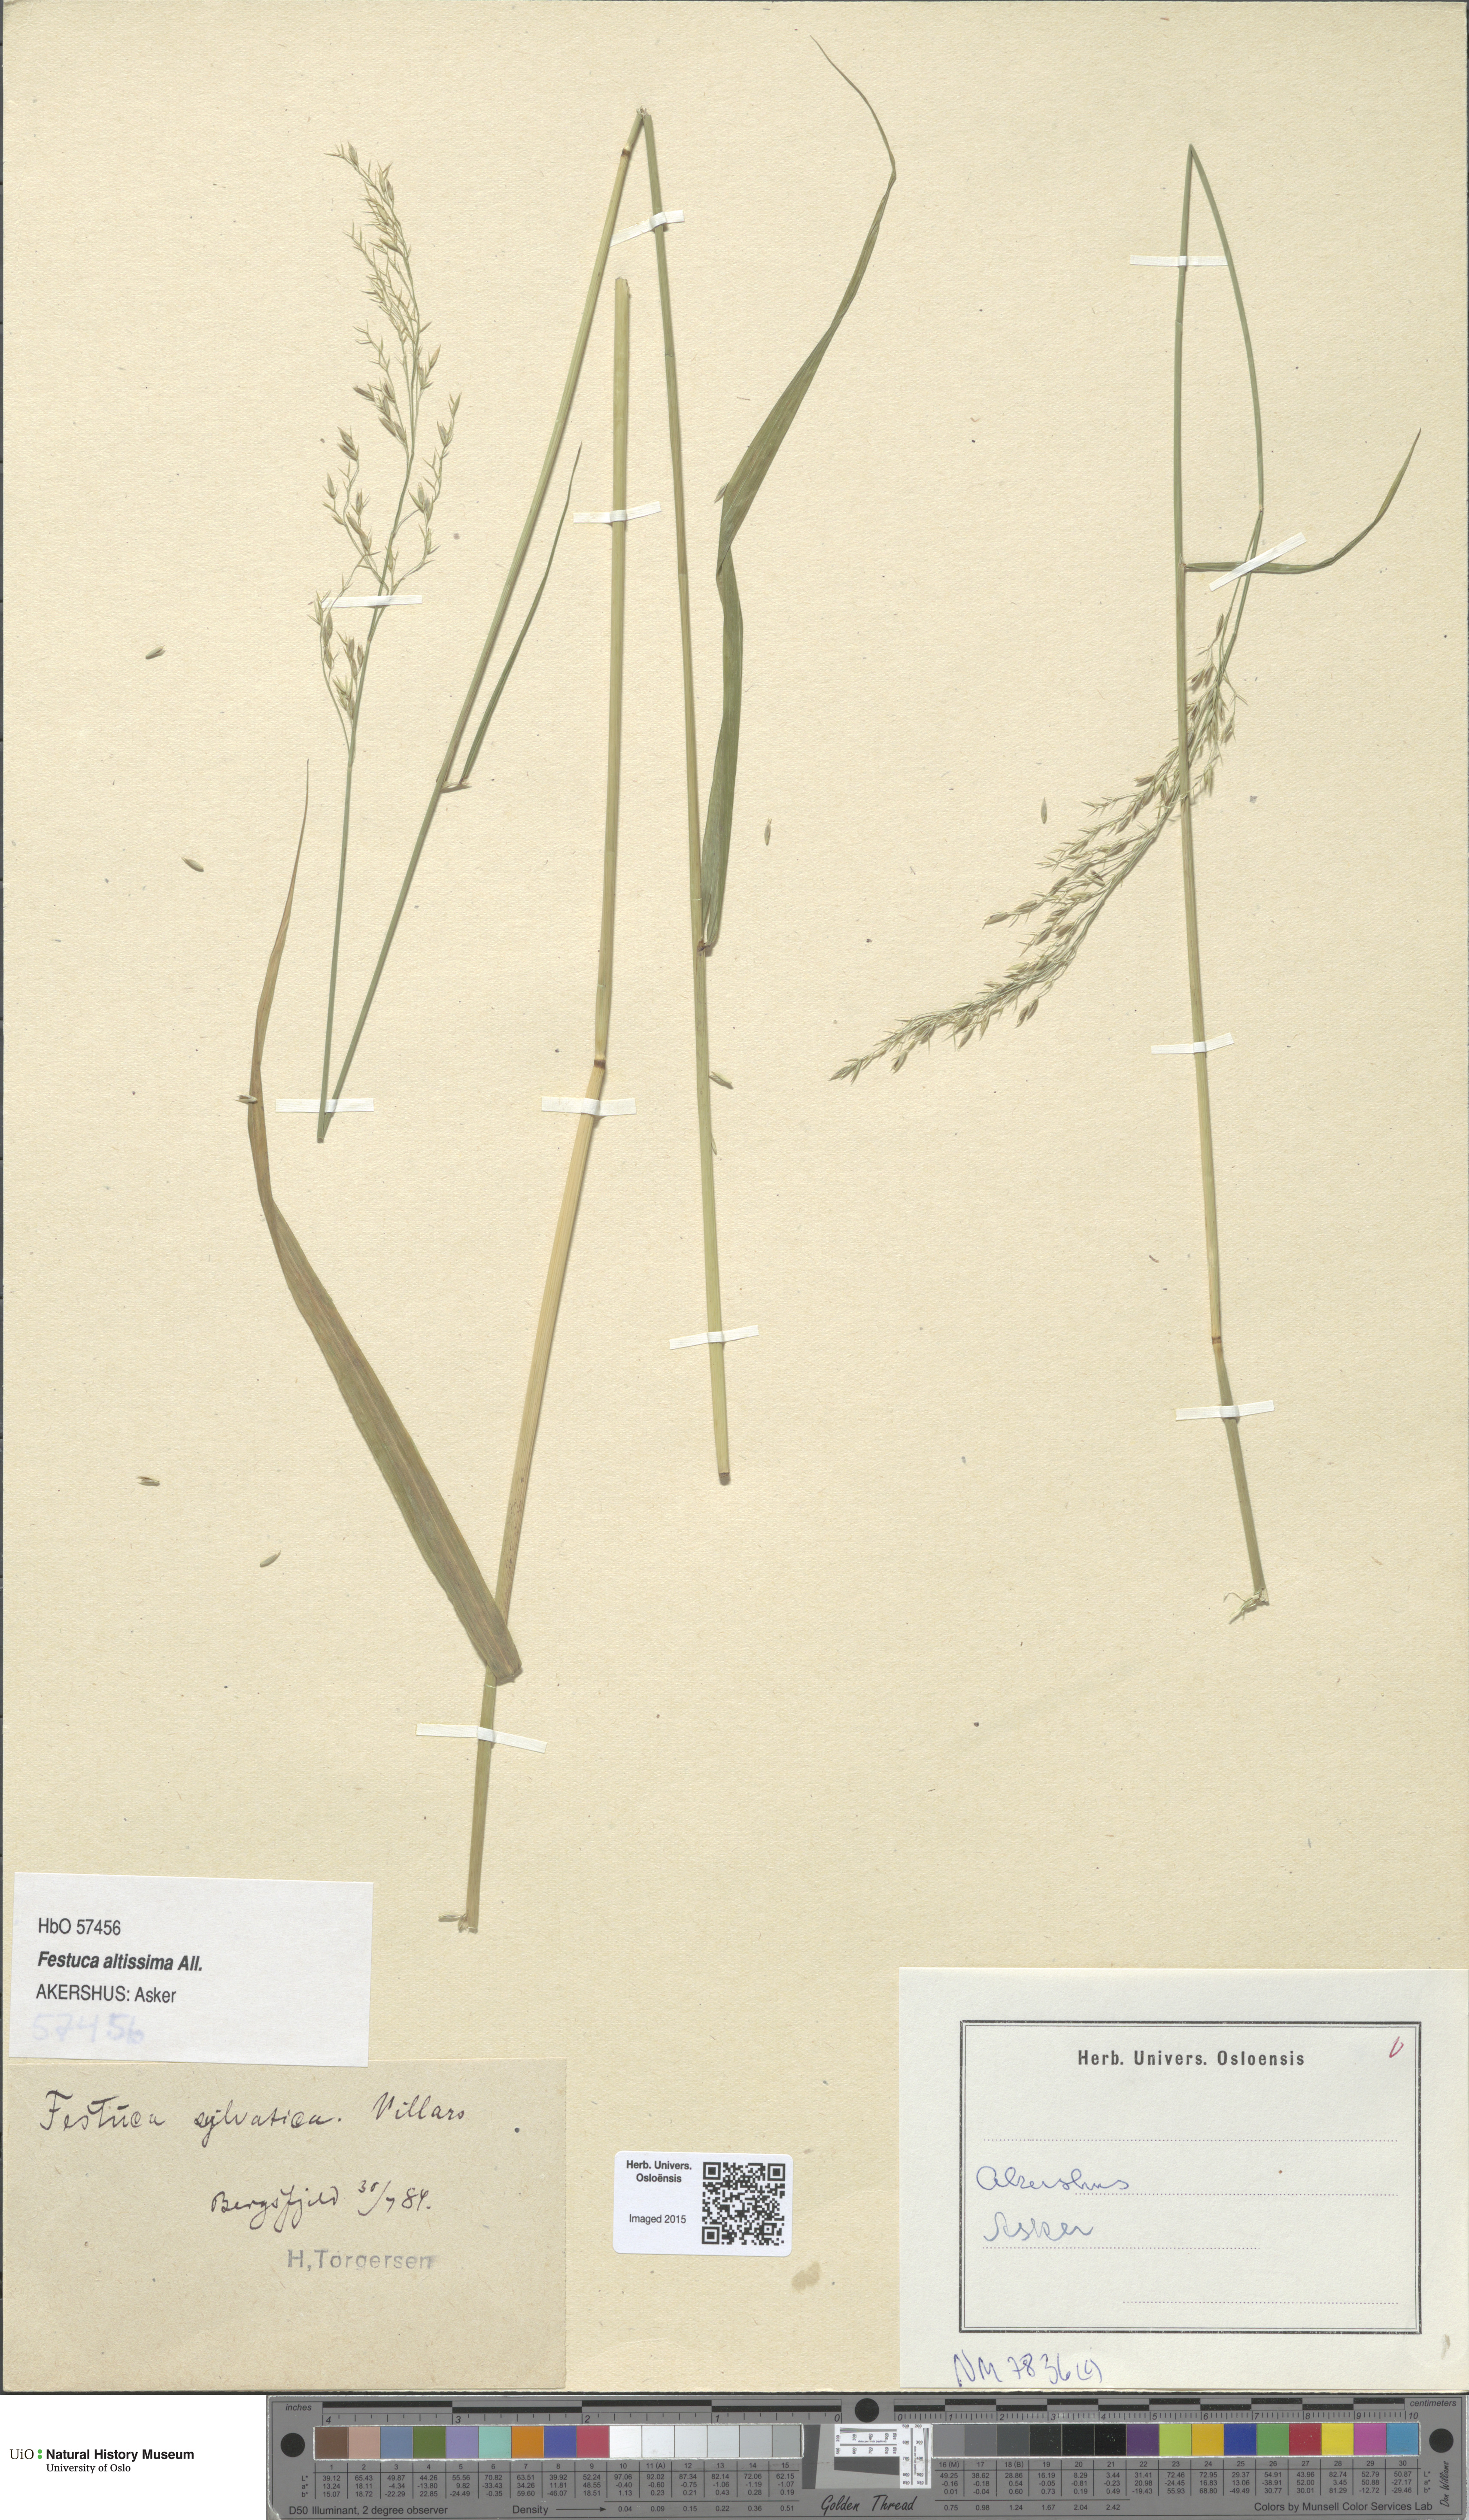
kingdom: Plantae
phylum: Tracheophyta
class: Liliopsida
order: Poales
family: Poaceae
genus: Festuca
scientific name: Festuca altissima
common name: Wood fescue
